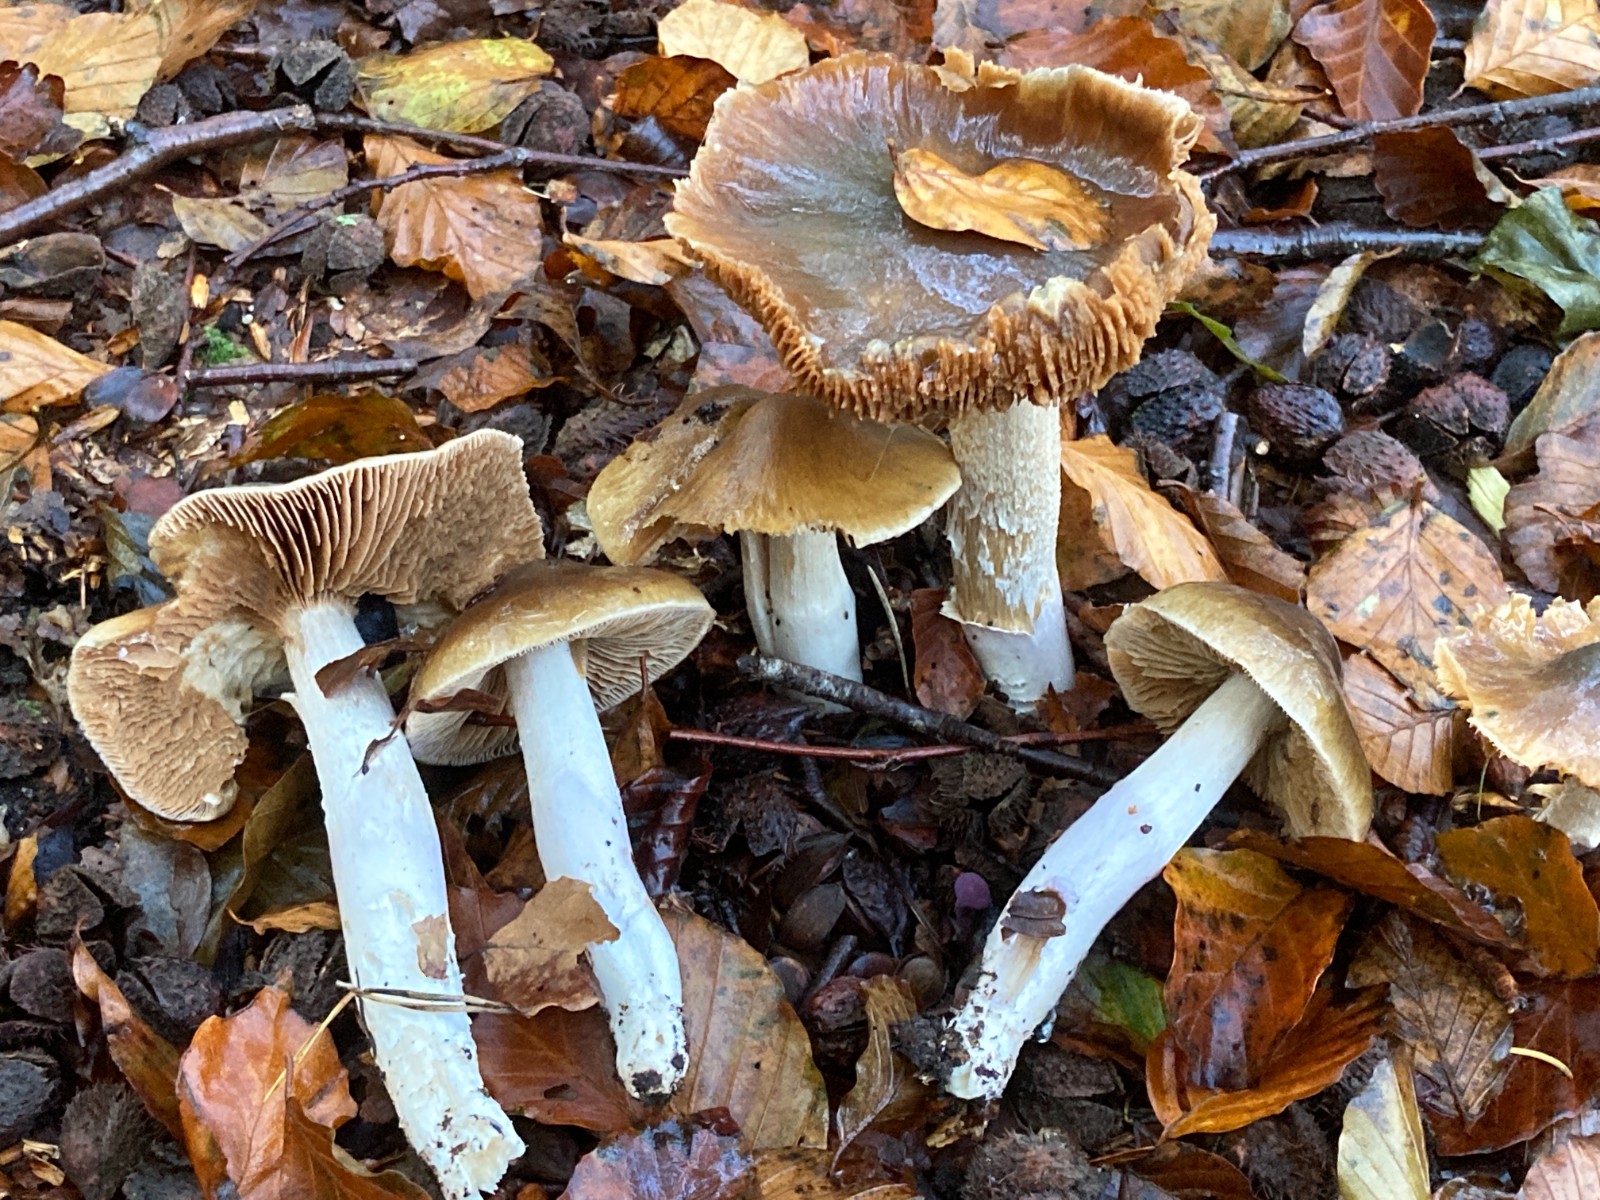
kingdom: Fungi
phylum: Basidiomycota
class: Agaricomycetes
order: Agaricales
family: Cortinariaceae
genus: Cortinarius
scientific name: Cortinarius elatior
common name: høj slørhat
